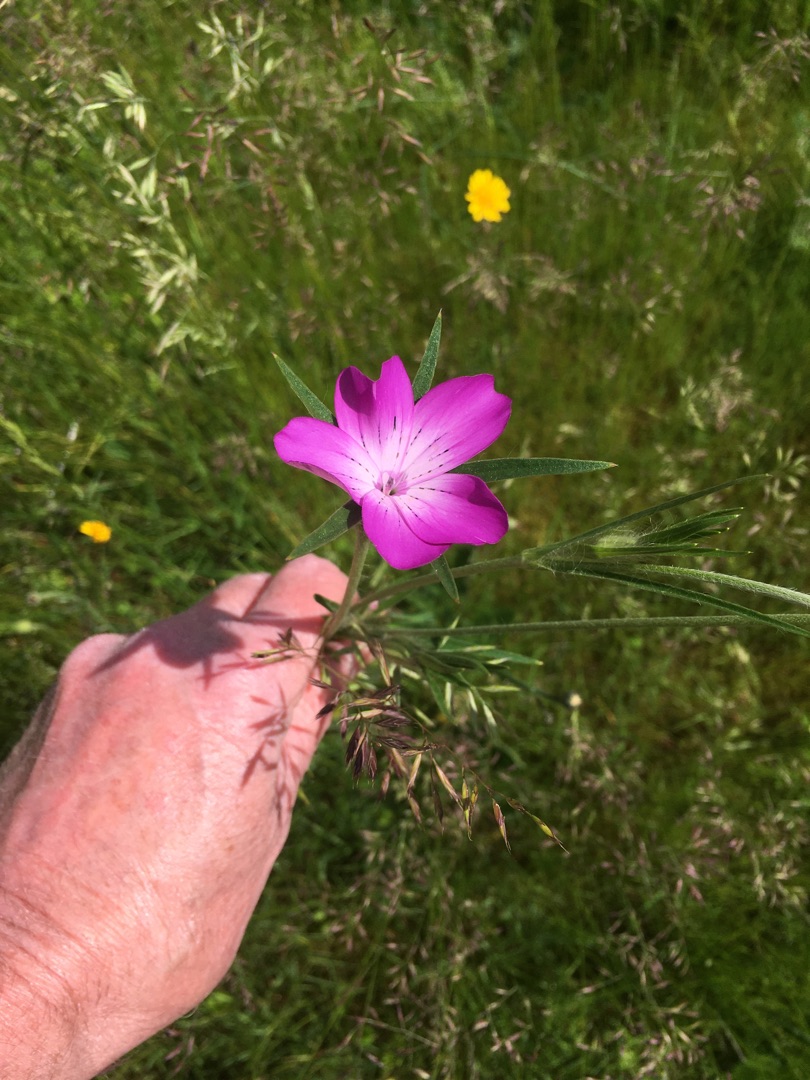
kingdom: Plantae
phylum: Tracheophyta
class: Magnoliopsida
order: Caryophyllales
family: Caryophyllaceae
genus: Agrostemma
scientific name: Agrostemma githago
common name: Klinte
